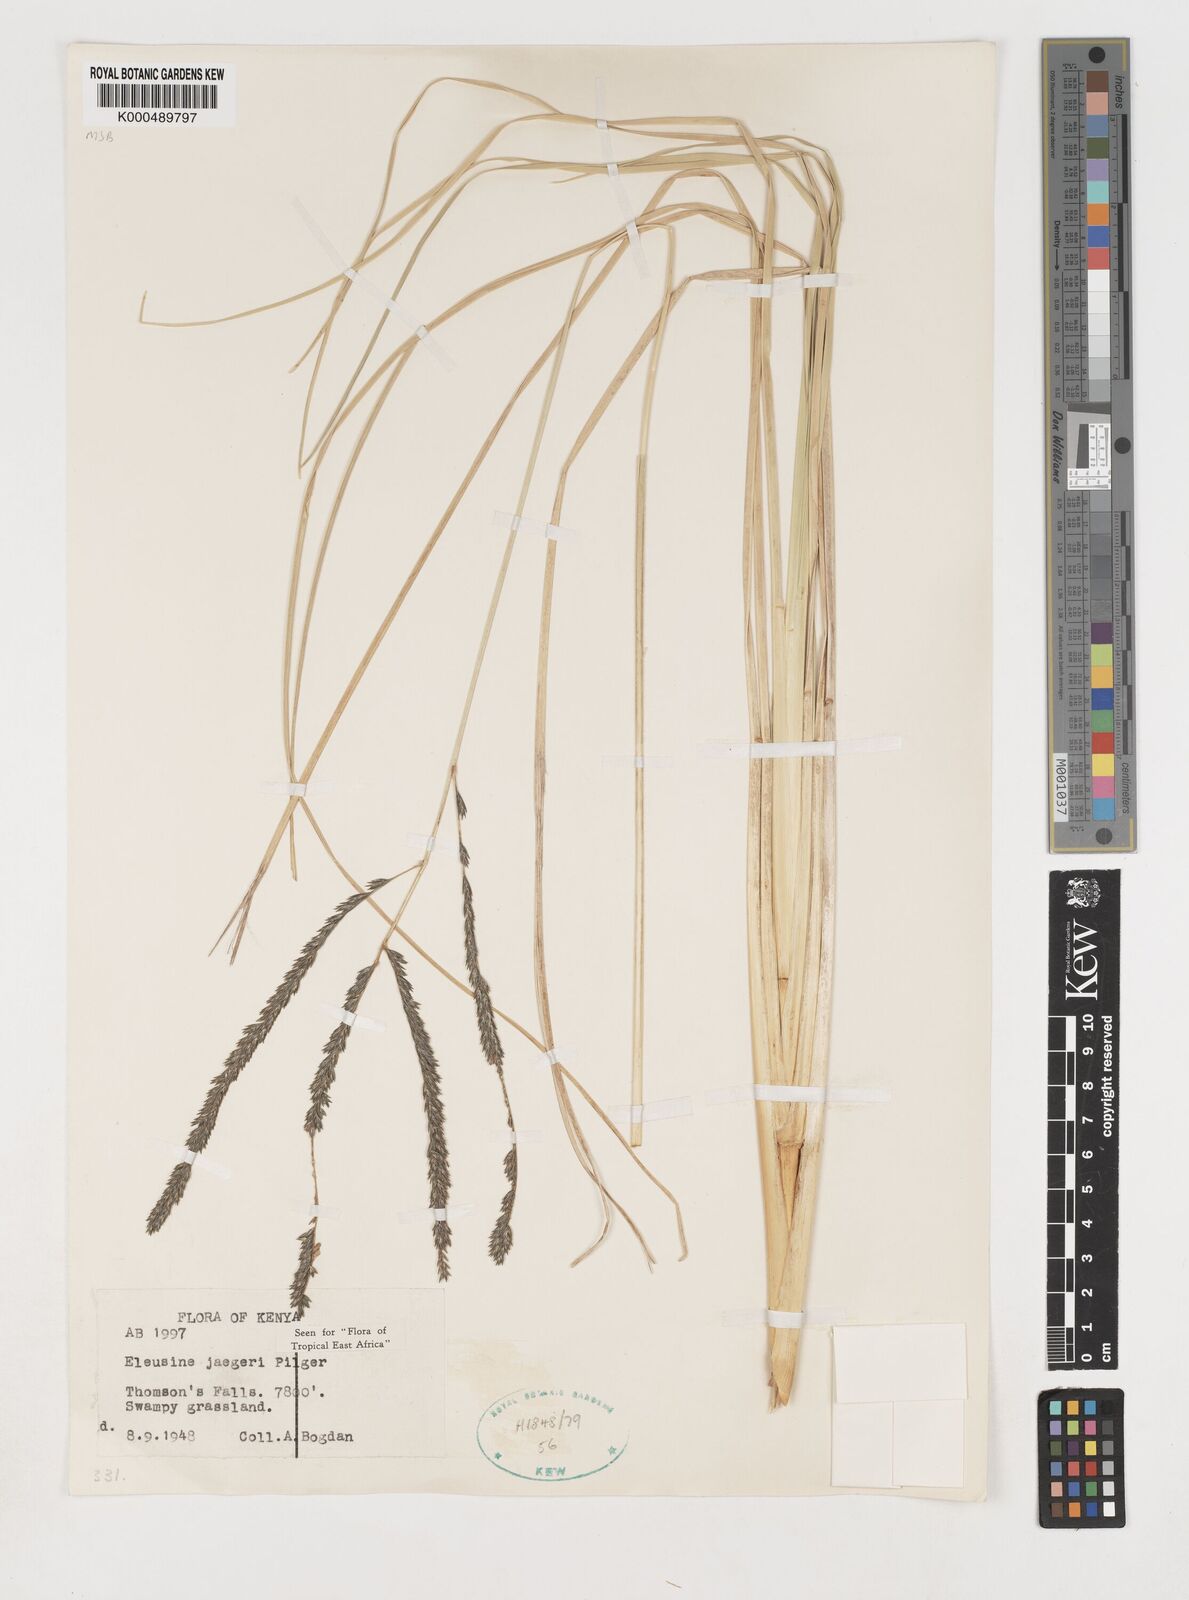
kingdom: Plantae
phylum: Tracheophyta
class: Liliopsida
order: Poales
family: Poaceae
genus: Eleusine
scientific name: Eleusine jaegeri
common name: Manyatta grass
